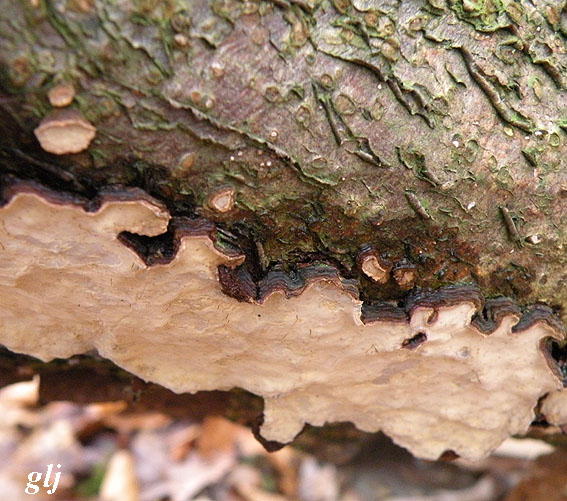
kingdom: Fungi
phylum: Basidiomycota
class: Agaricomycetes
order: Russulales
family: Stereaceae
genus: Stereum
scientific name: Stereum rugosum
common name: rynket lædersvamp
